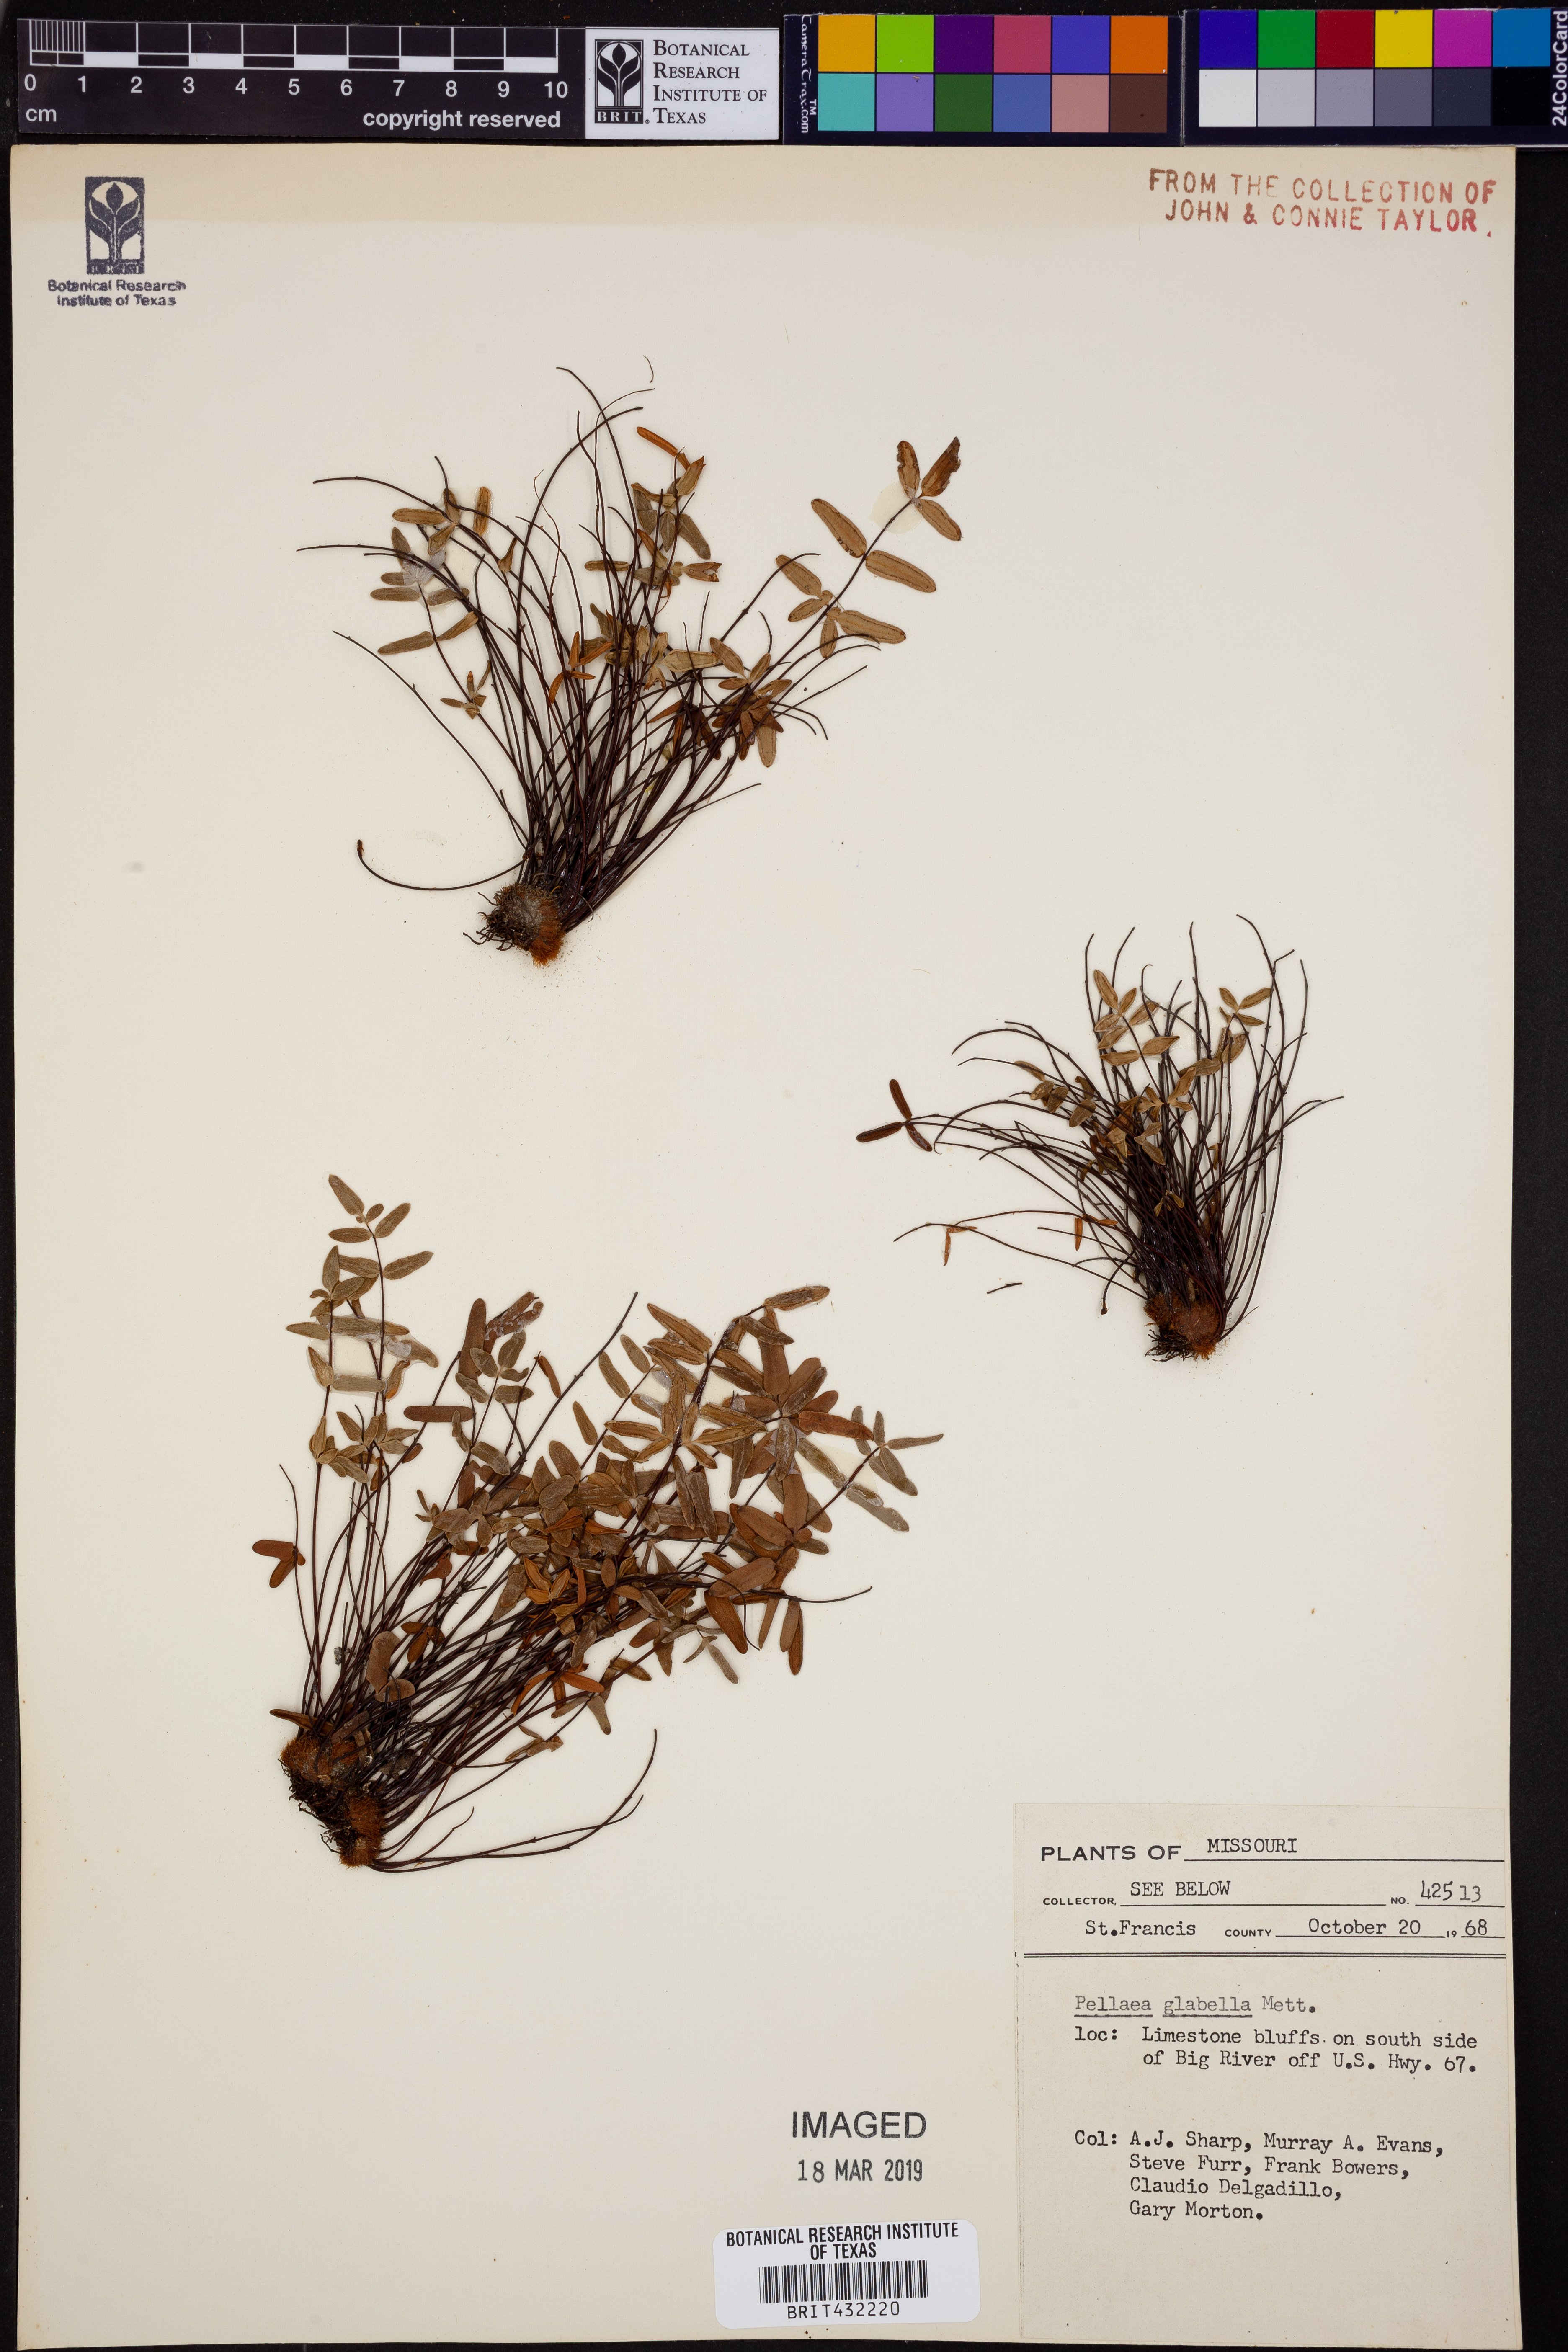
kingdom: Plantae
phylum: Tracheophyta
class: Polypodiopsida
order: Polypodiales
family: Pteridaceae
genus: Pellaea
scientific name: Pellaea glabella
